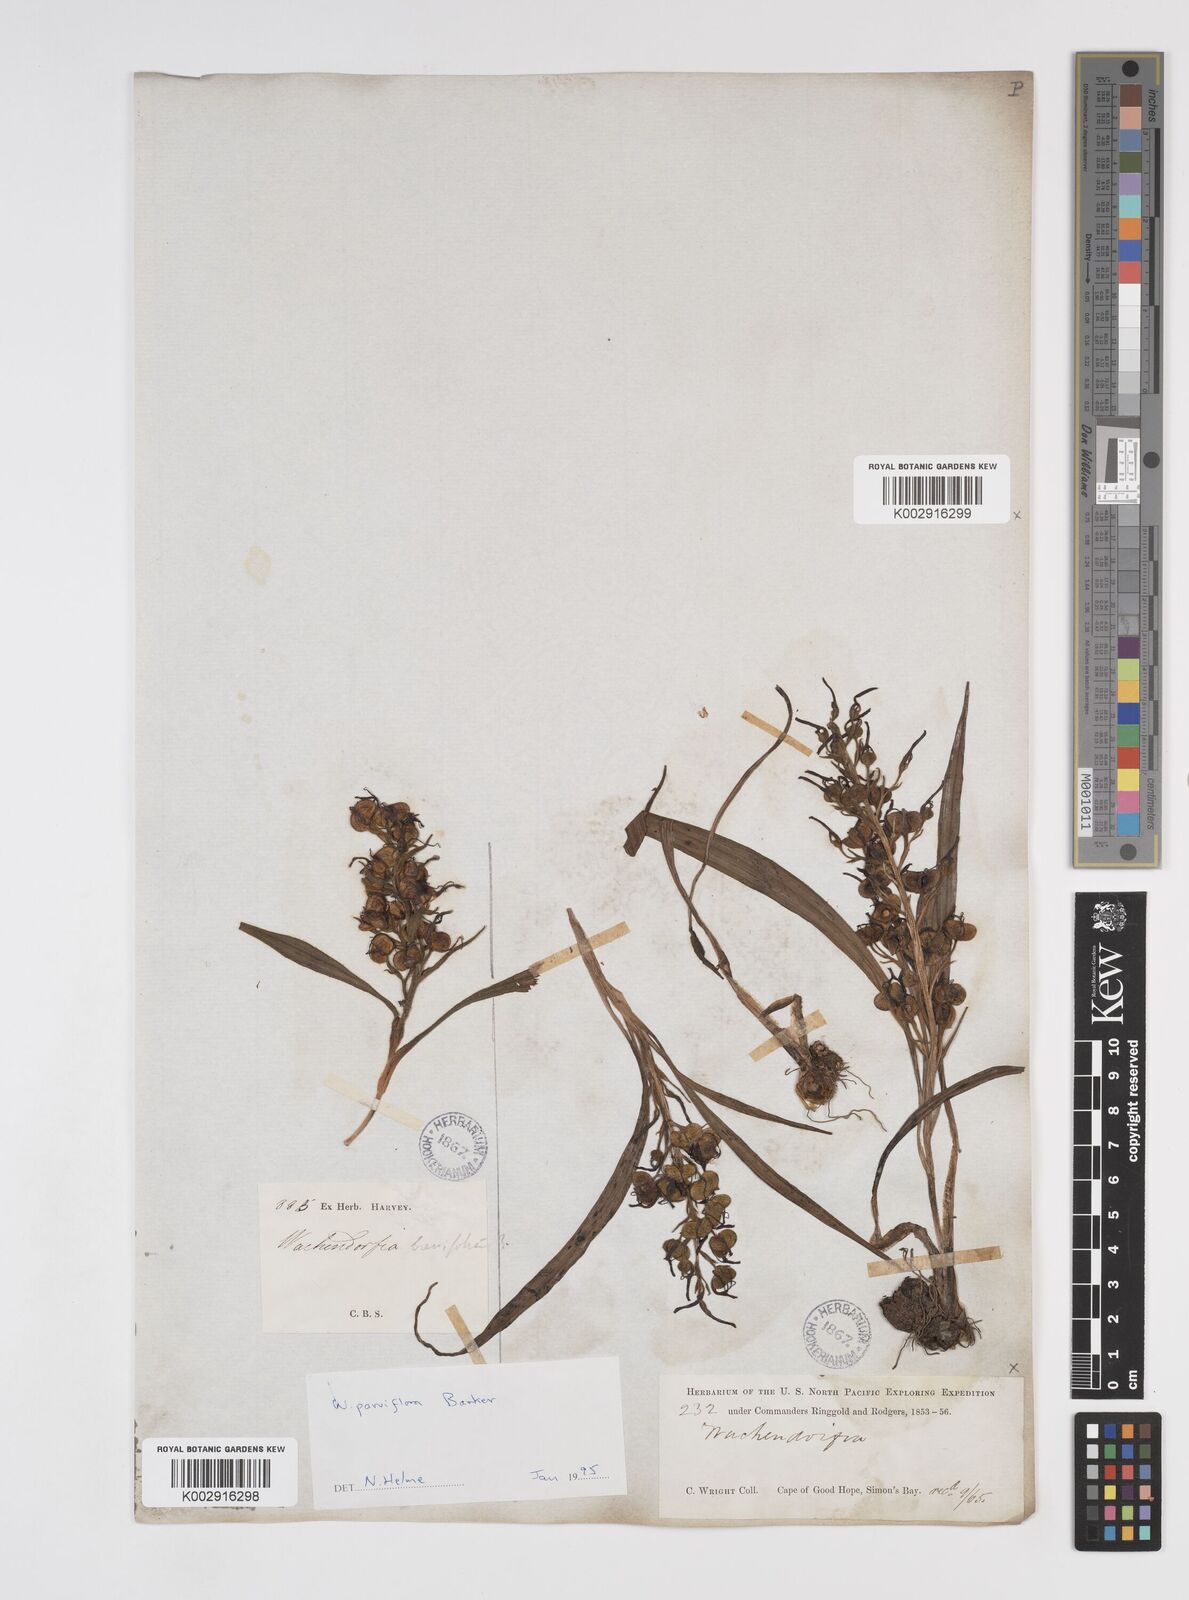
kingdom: Plantae
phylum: Tracheophyta
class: Liliopsida
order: Commelinales
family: Haemodoraceae
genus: Wachendorfia
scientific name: Wachendorfia multiflora
